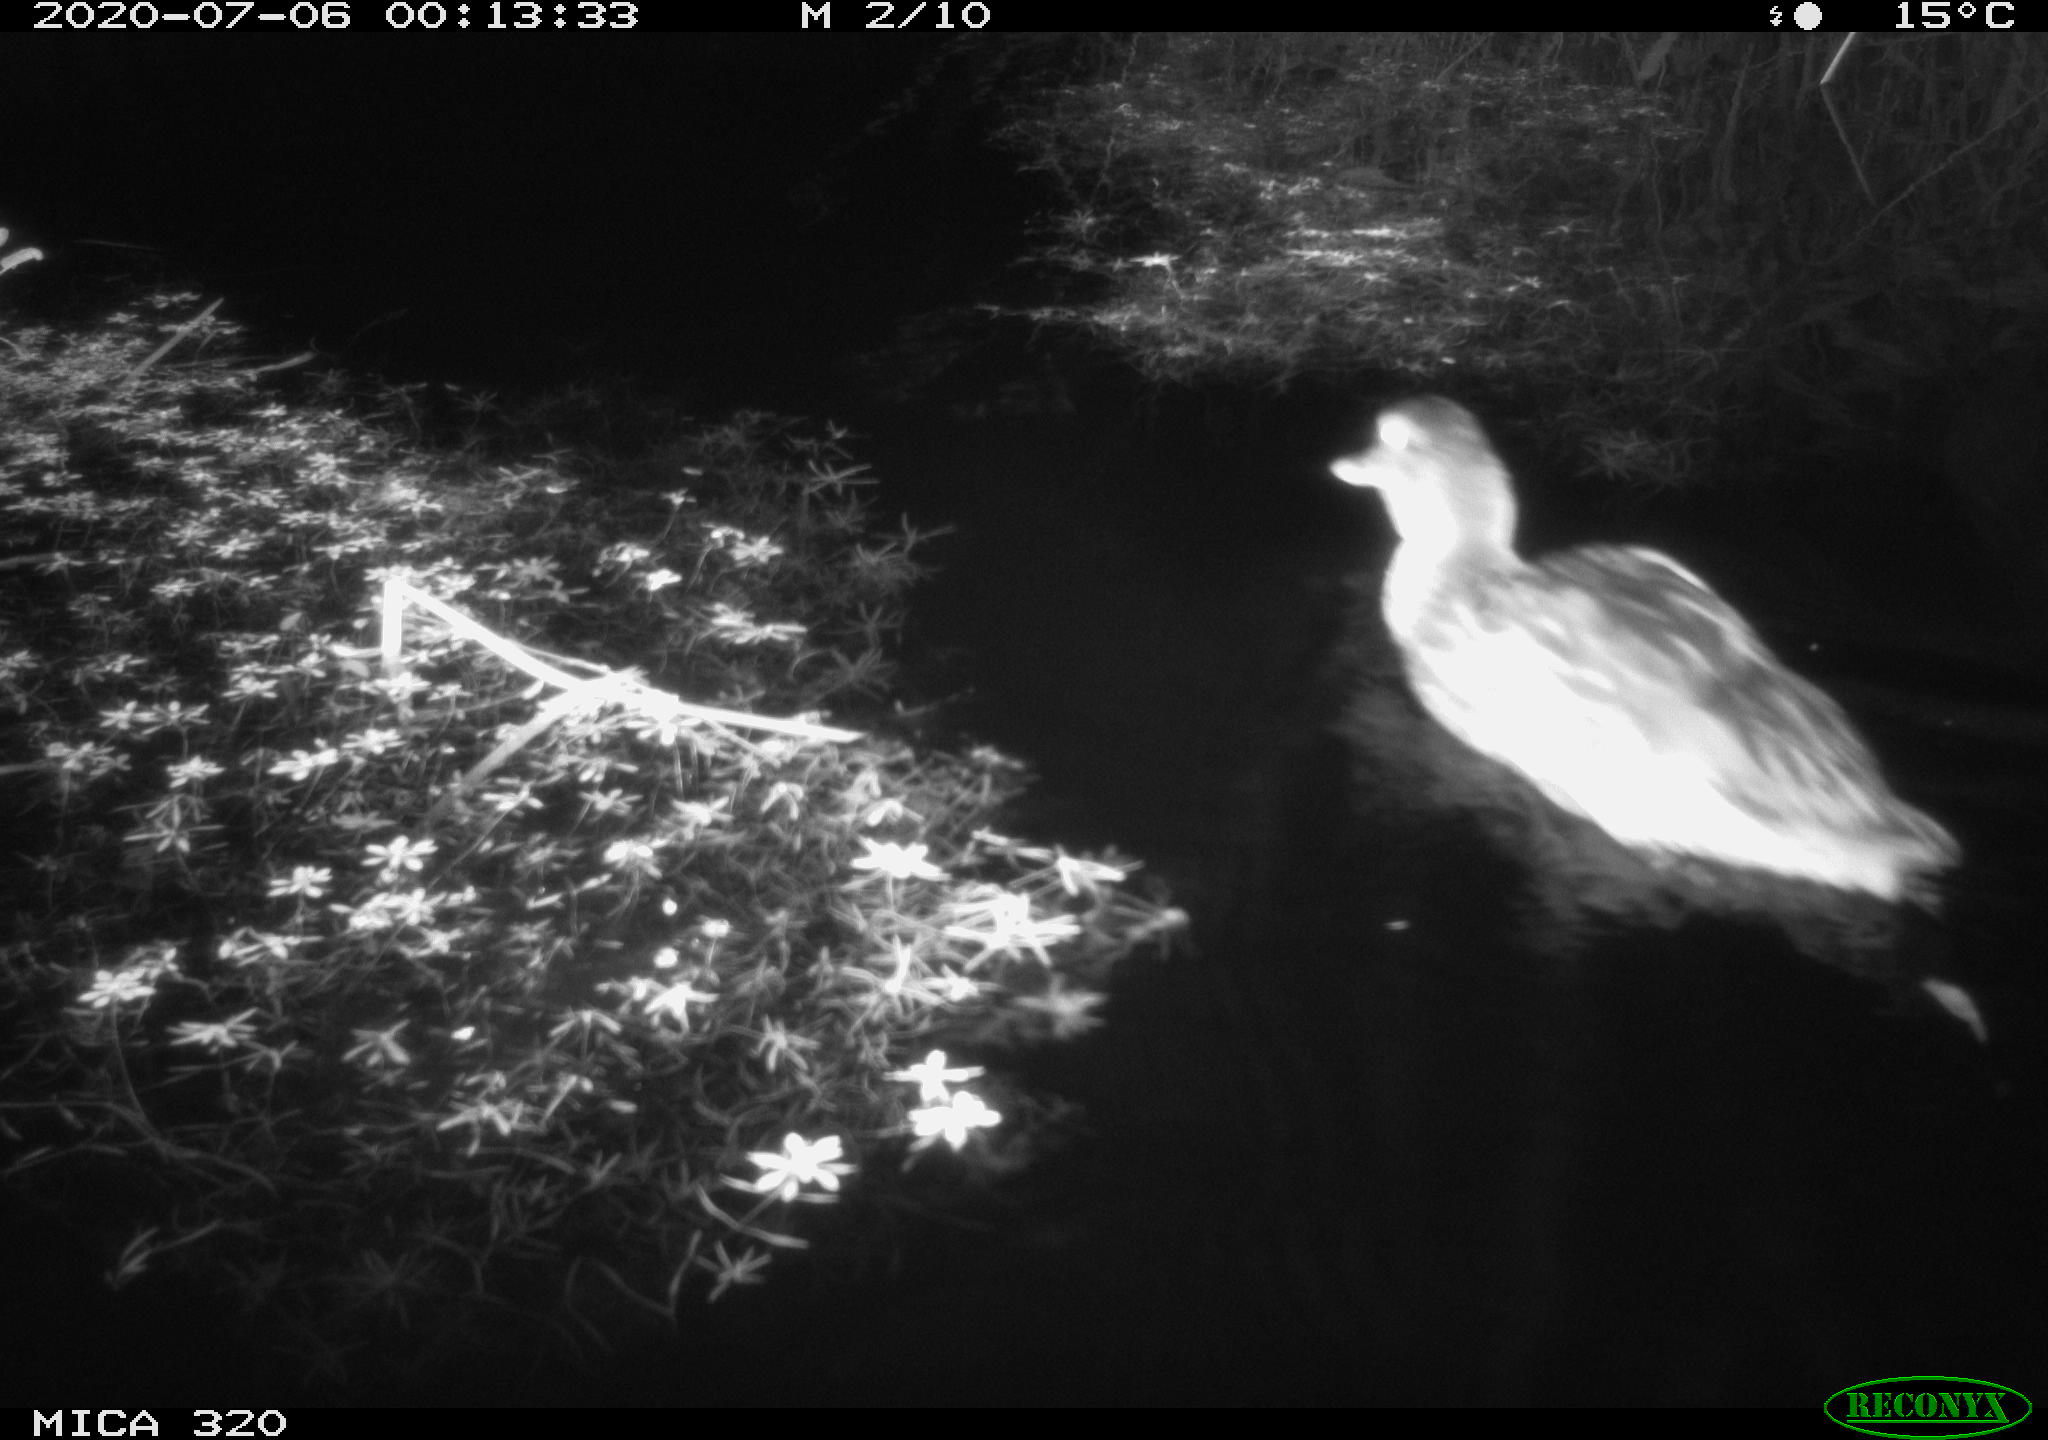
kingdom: Animalia
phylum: Chordata
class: Aves
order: Anseriformes
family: Anatidae
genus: Anas
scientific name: Anas platyrhynchos
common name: Mallard
